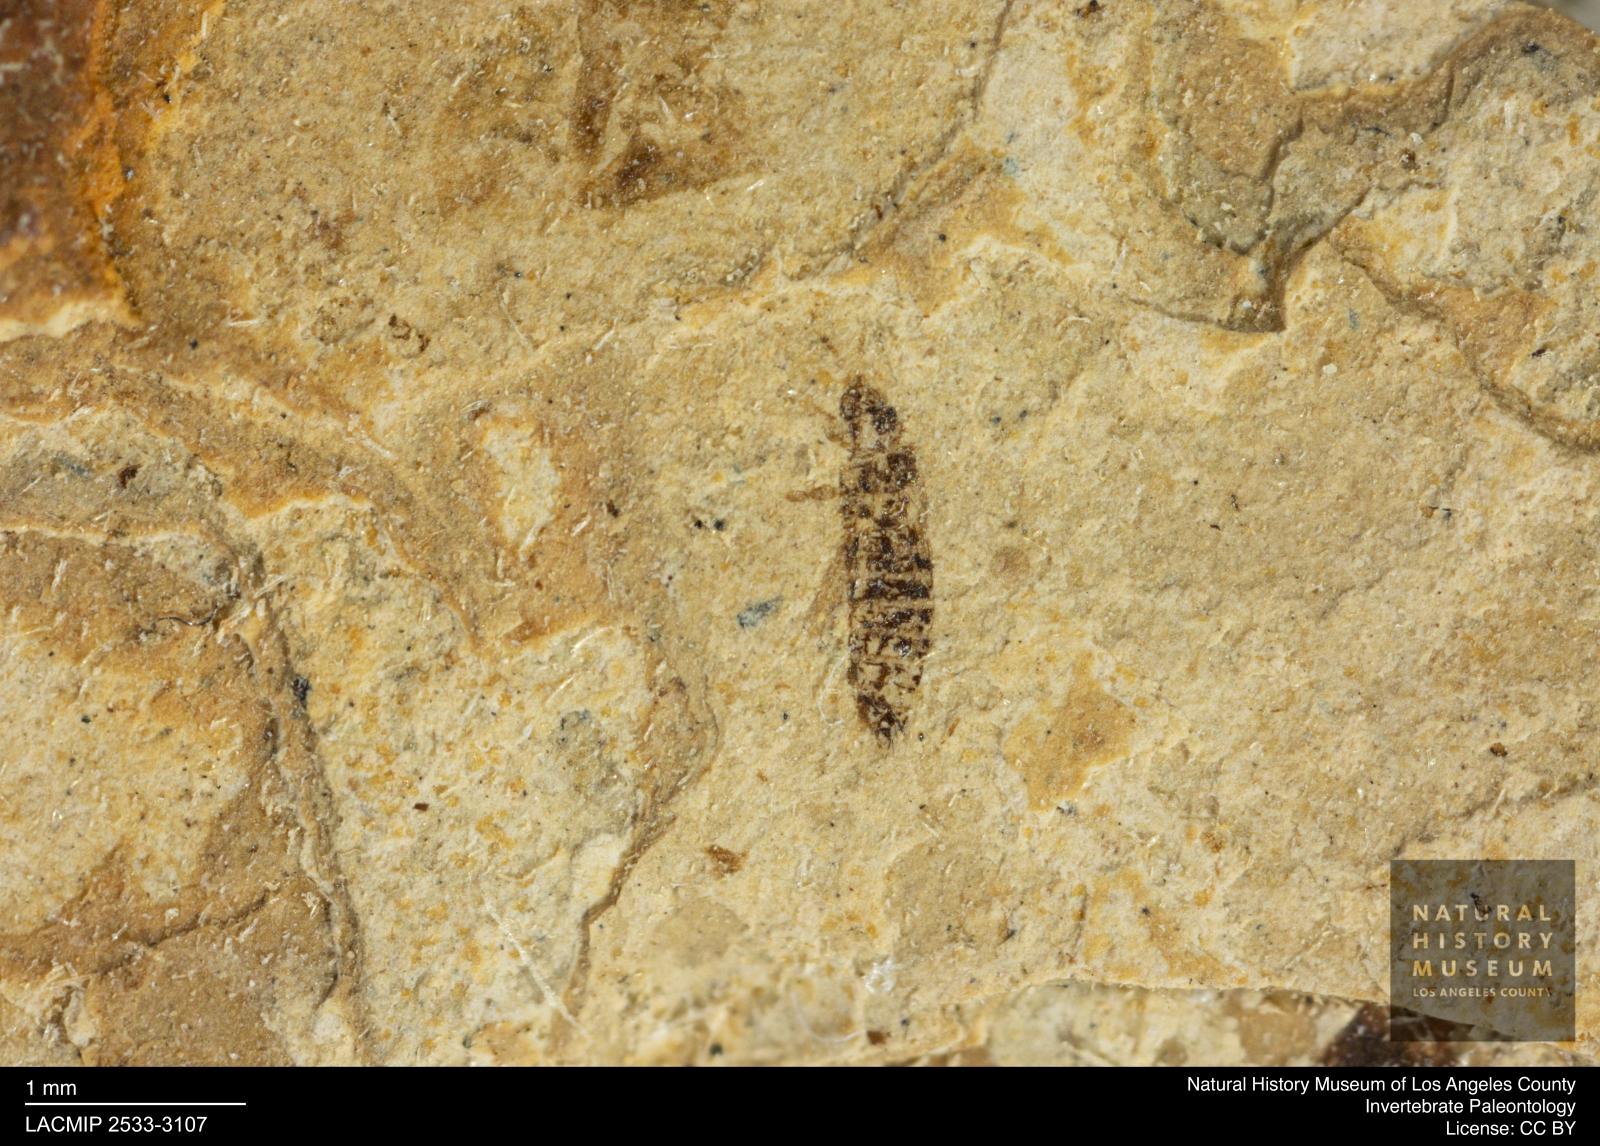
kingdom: Animalia
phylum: Arthropoda
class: Insecta
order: Thysanoptera
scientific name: Thysanoptera
